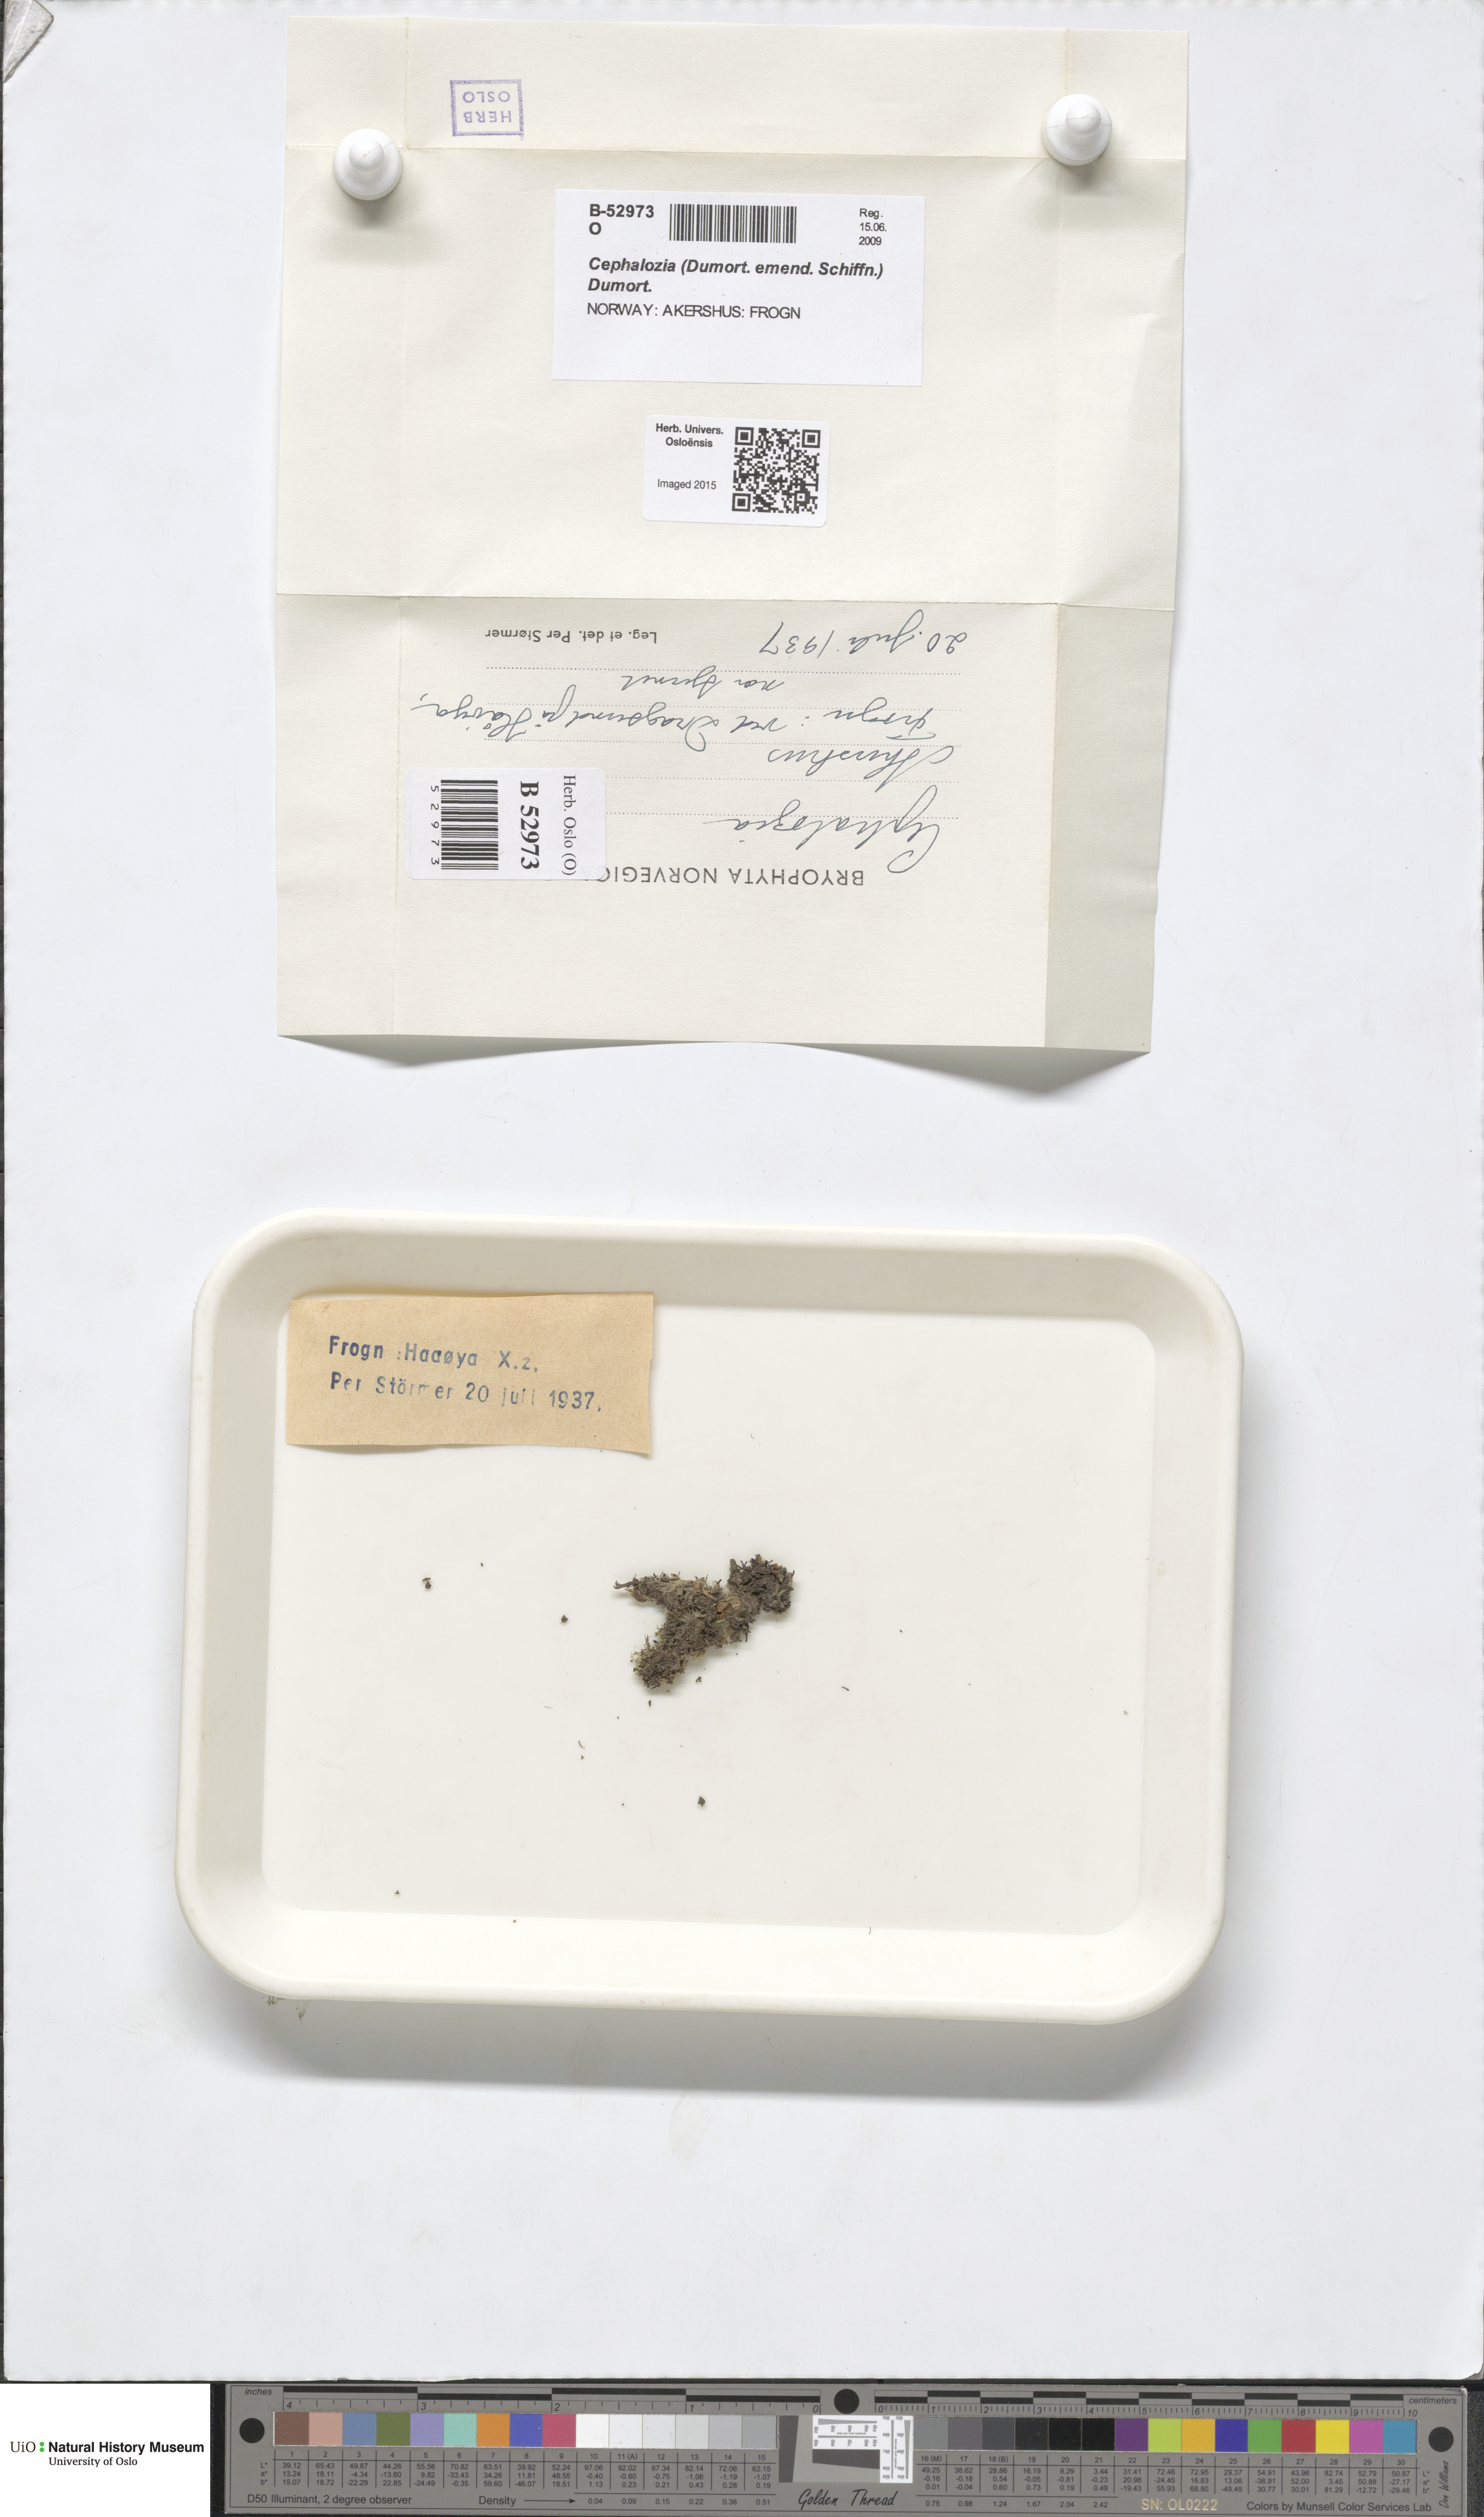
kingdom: Plantae
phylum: Marchantiophyta
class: Jungermanniopsida
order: Jungermanniales
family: Cephaloziaceae
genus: Cephalozia
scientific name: Cephalozia
